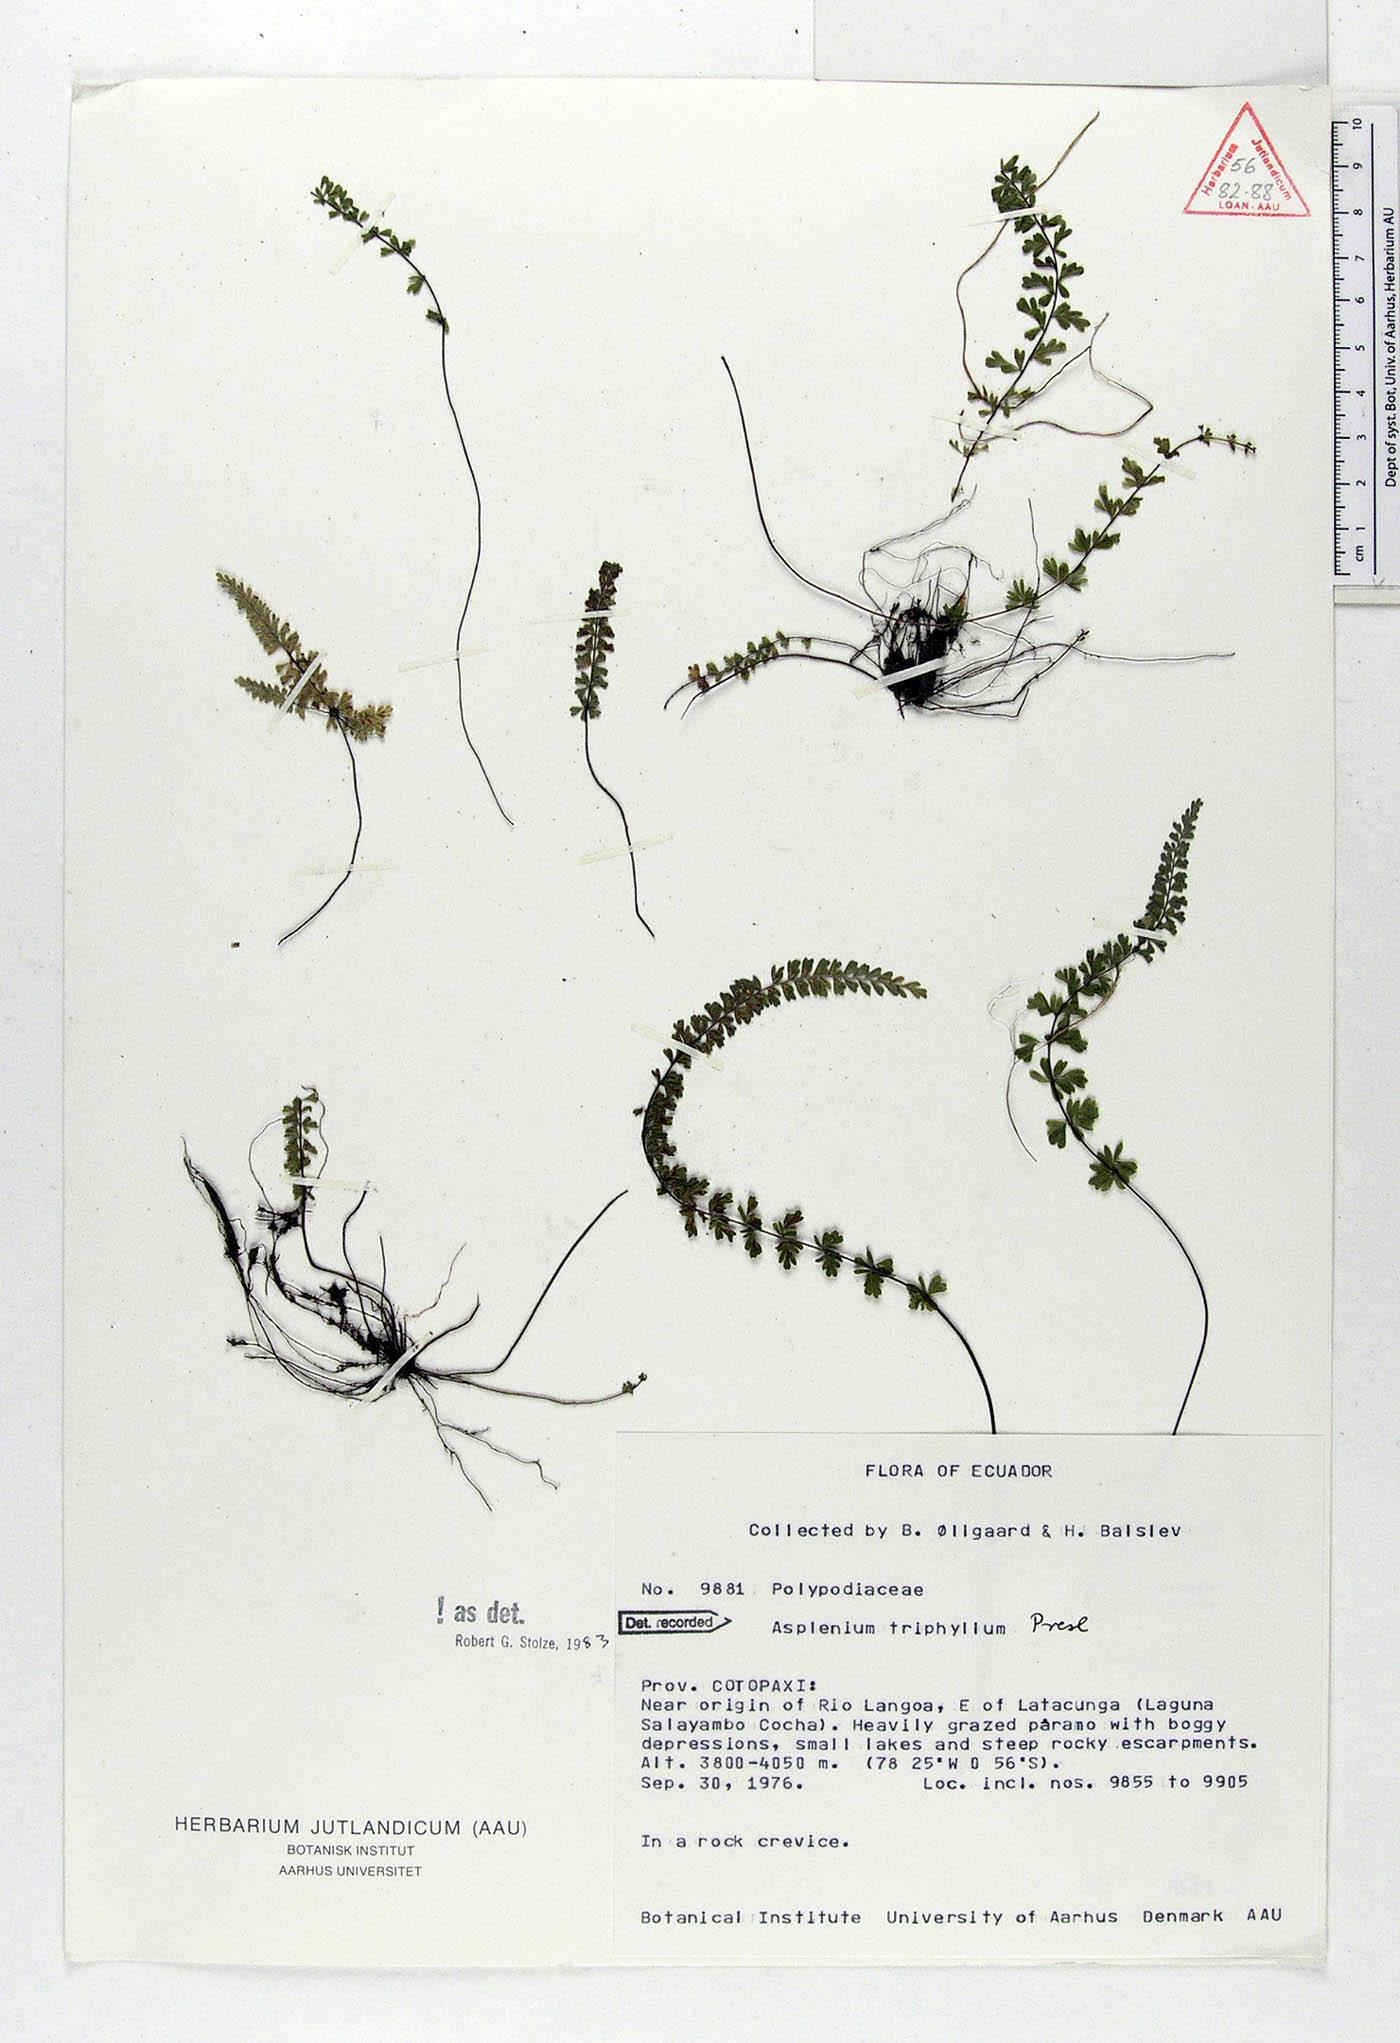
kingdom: Plantae
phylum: Tracheophyta
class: Polypodiopsida
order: Polypodiales
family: Aspleniaceae
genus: Asplenium
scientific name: Asplenium triphyllum
